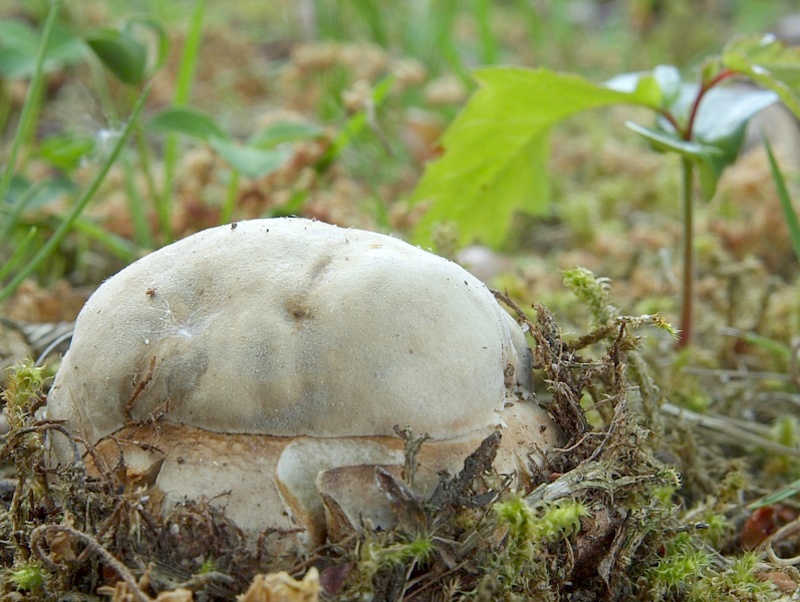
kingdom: Fungi
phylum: Basidiomycota
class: Agaricomycetes
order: Boletales
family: Boletaceae
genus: Boletus
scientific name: Boletus reticulatus
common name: Summer bolete
